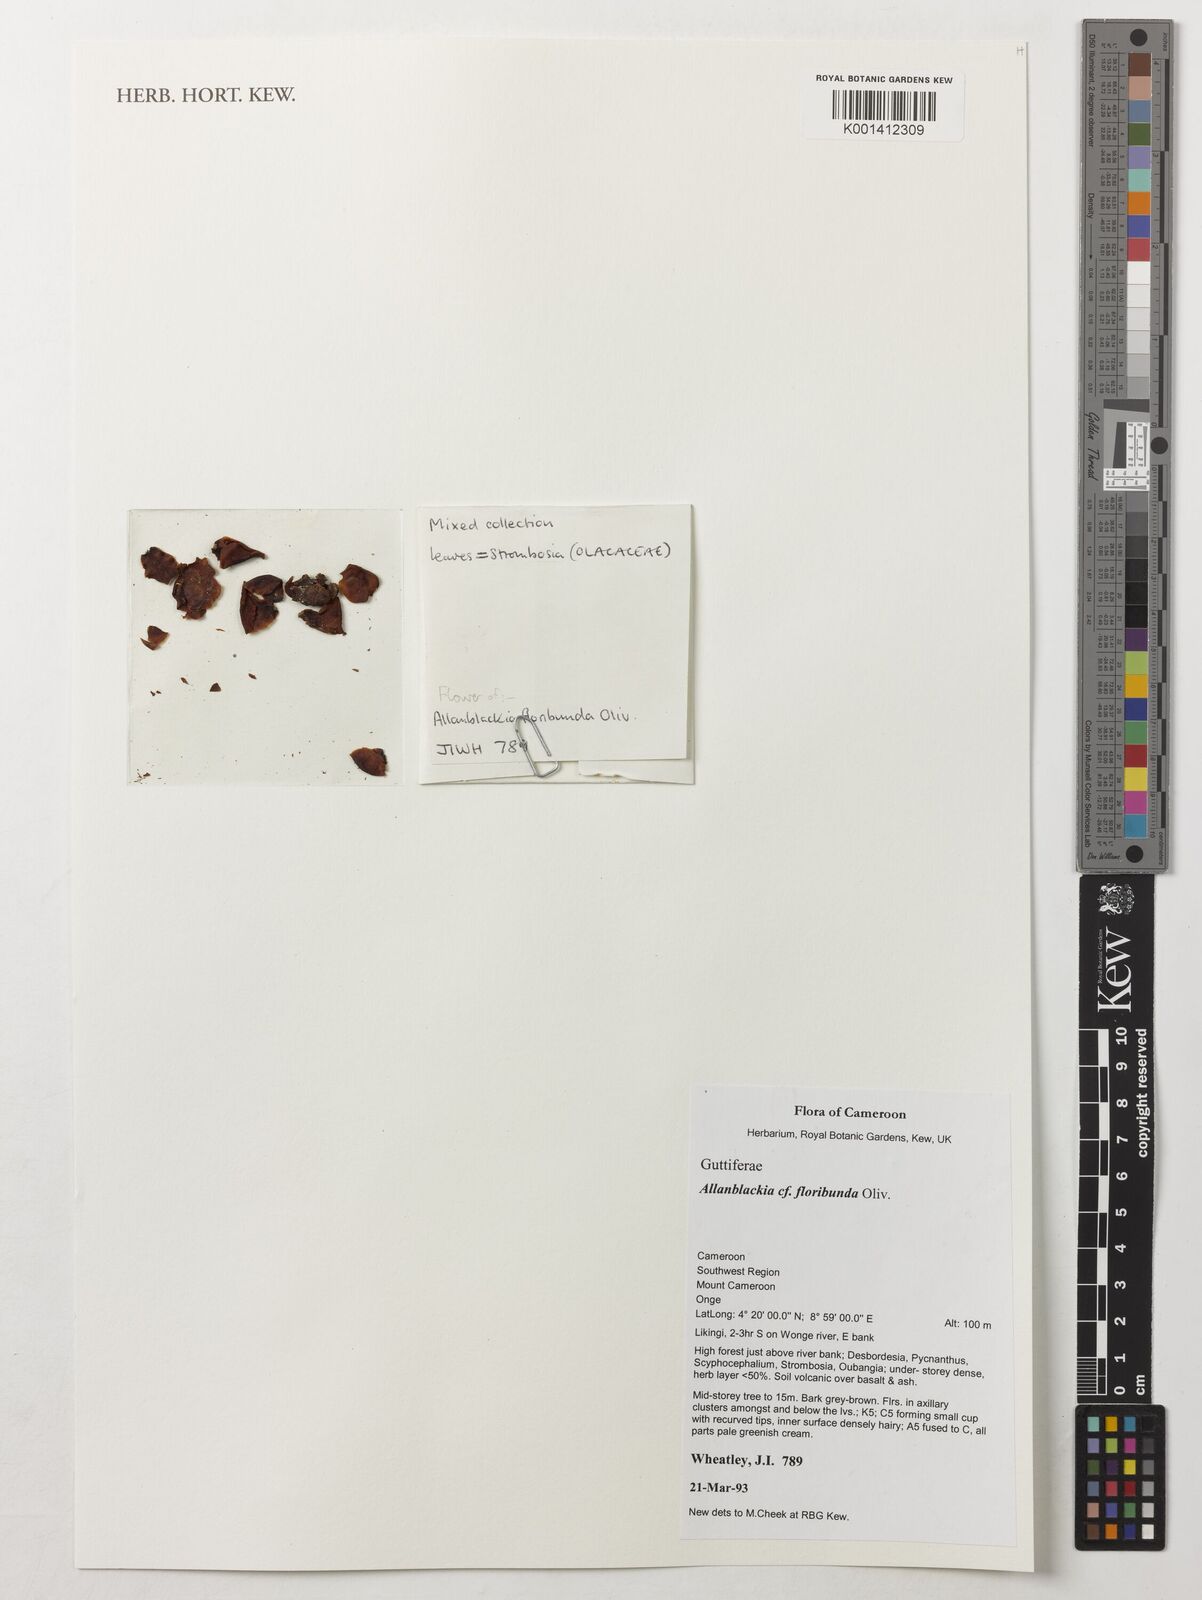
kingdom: Plantae
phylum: Tracheophyta
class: Magnoliopsida
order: Malpighiales
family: Clusiaceae
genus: Allanblackia
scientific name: Allanblackia floribunda
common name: Tallow tree
